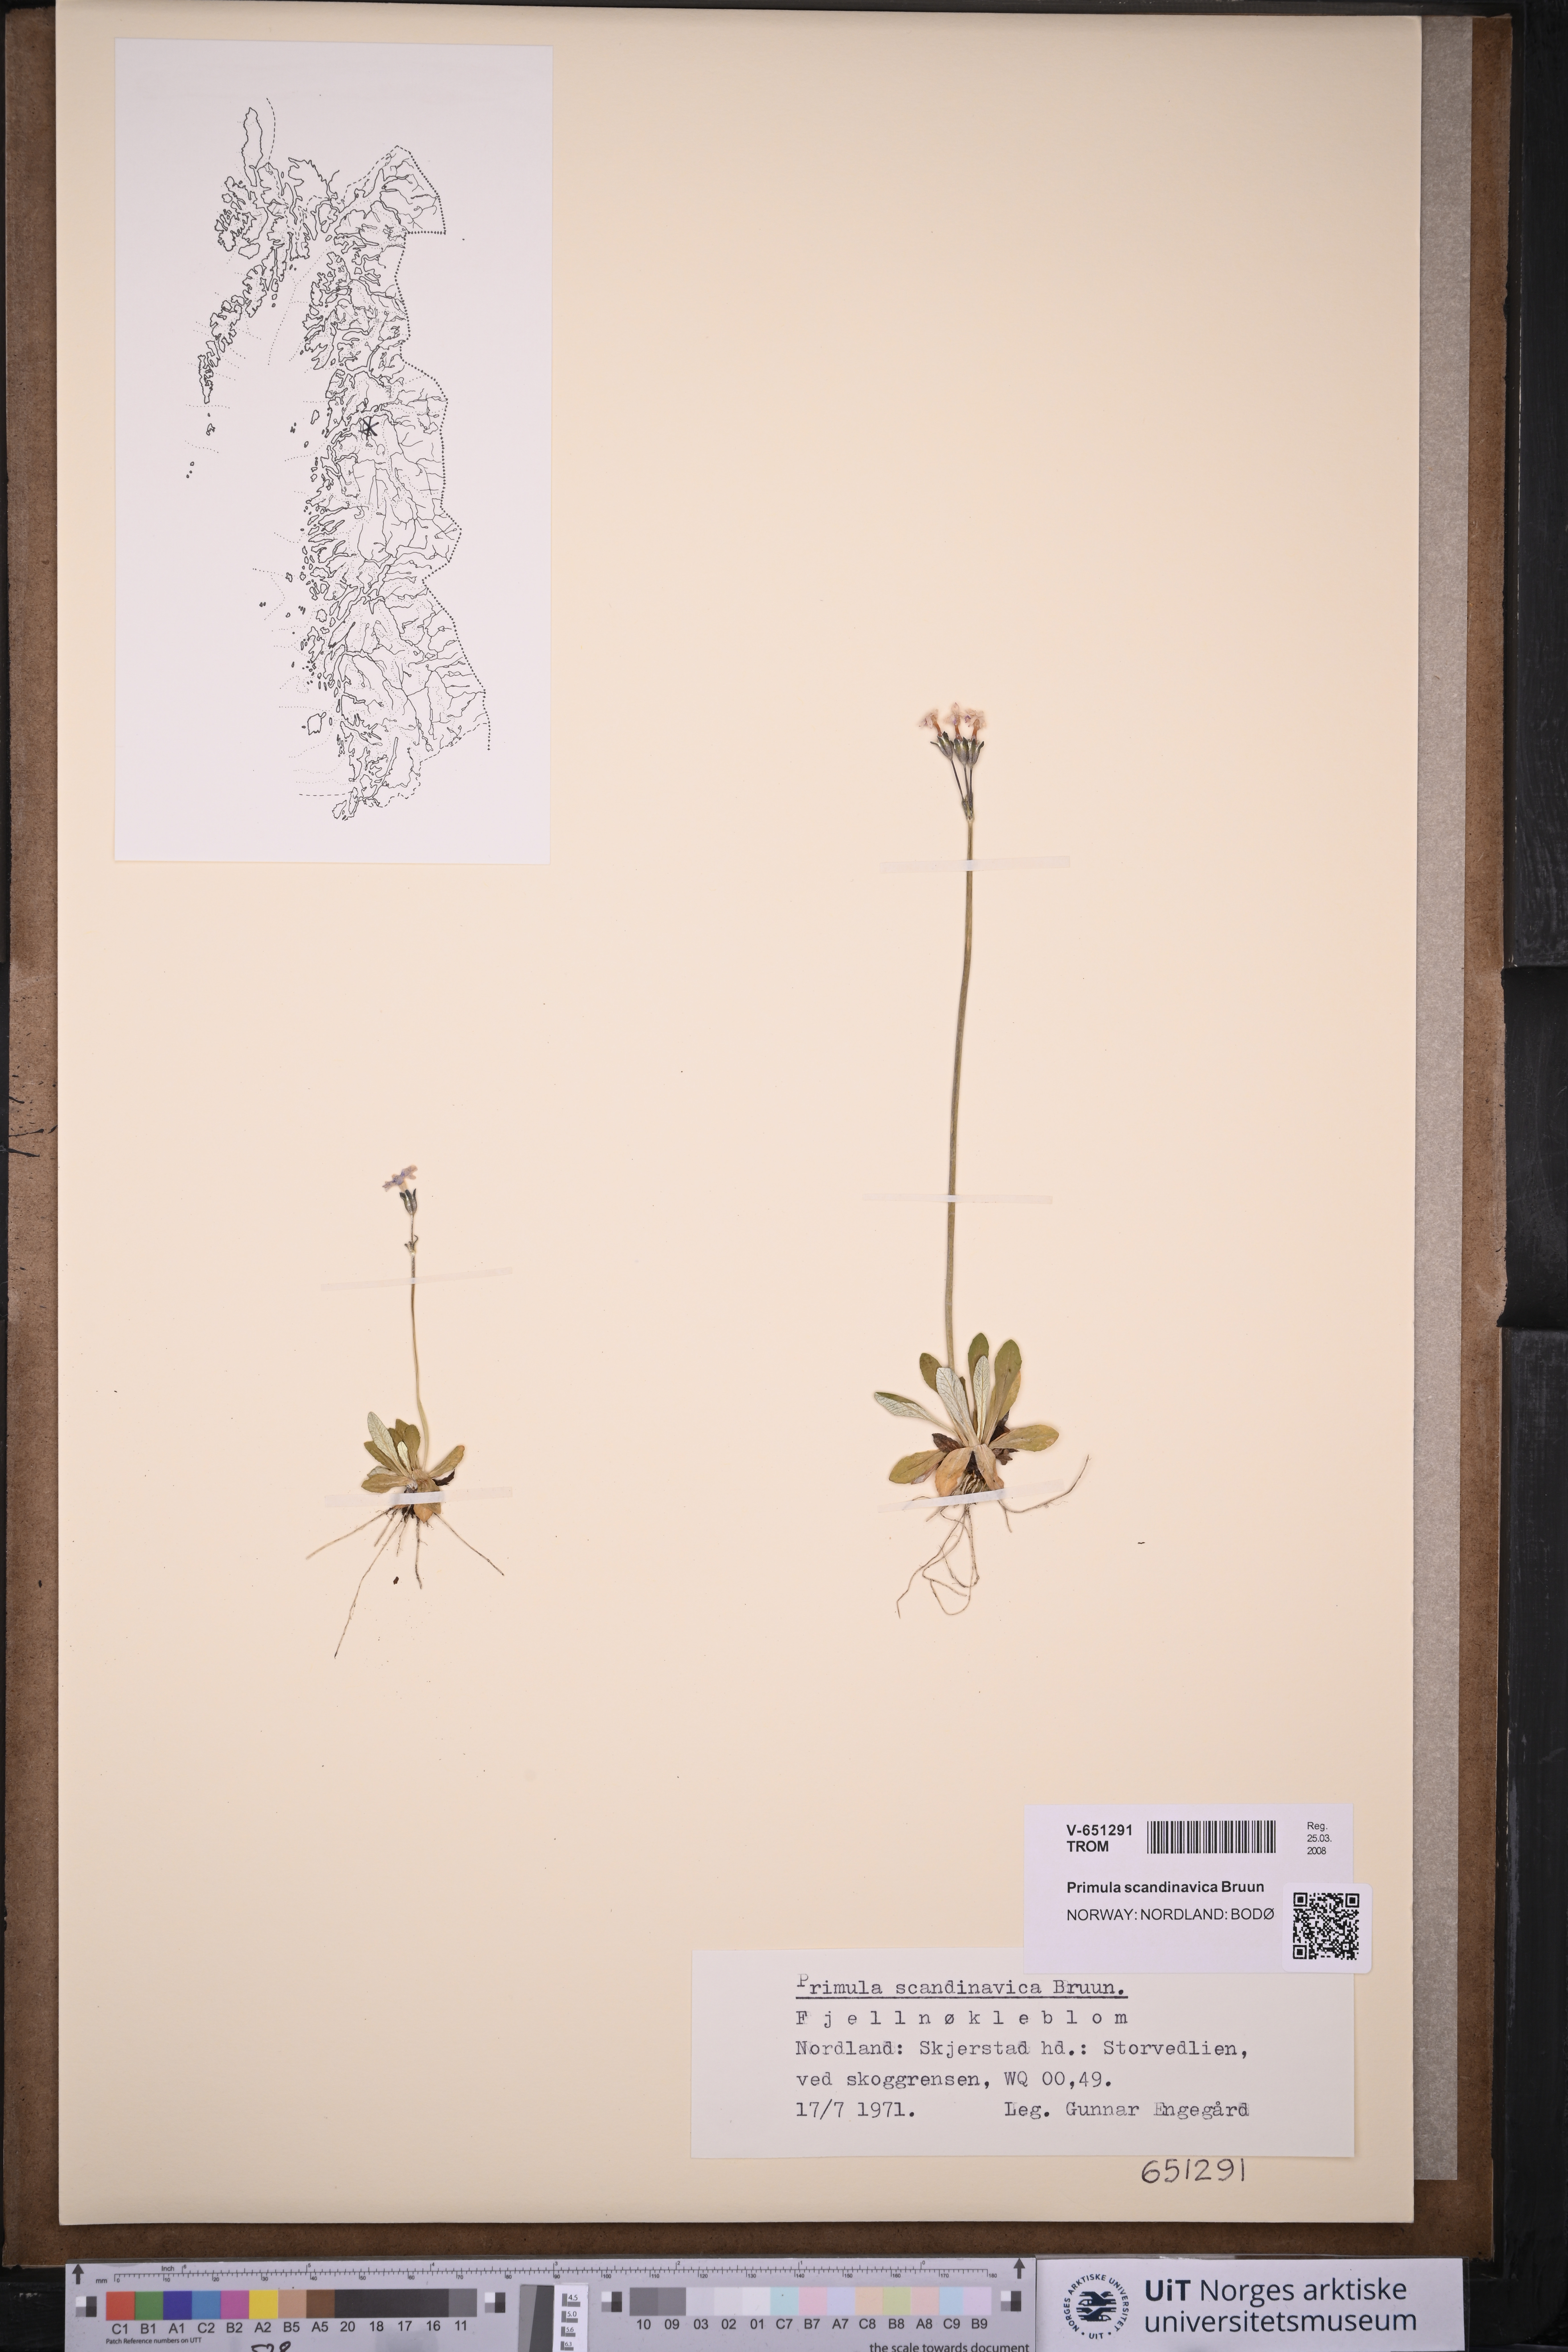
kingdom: Plantae
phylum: Tracheophyta
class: Magnoliopsida
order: Ericales
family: Primulaceae
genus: Primula
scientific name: Primula scandinavica
